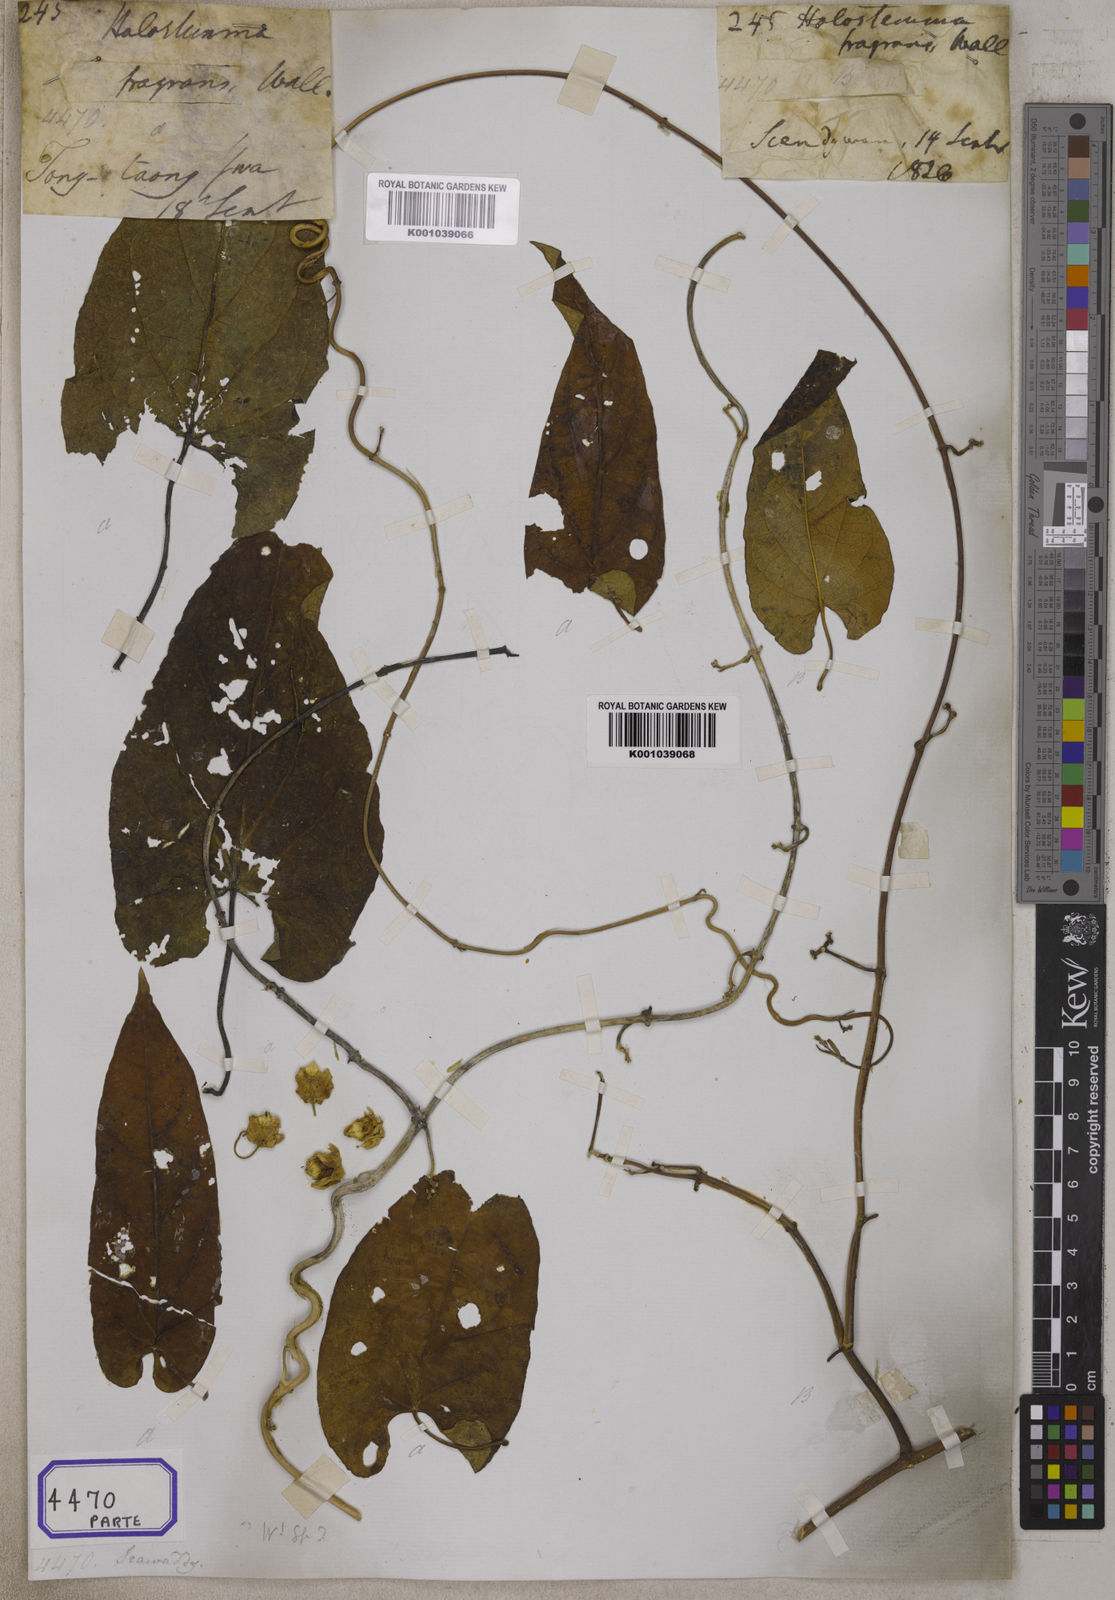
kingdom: Plantae
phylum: Tracheophyta
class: Magnoliopsida
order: Gentianales
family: Apocynaceae
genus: Cynanchum
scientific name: Cynanchum fragrans
